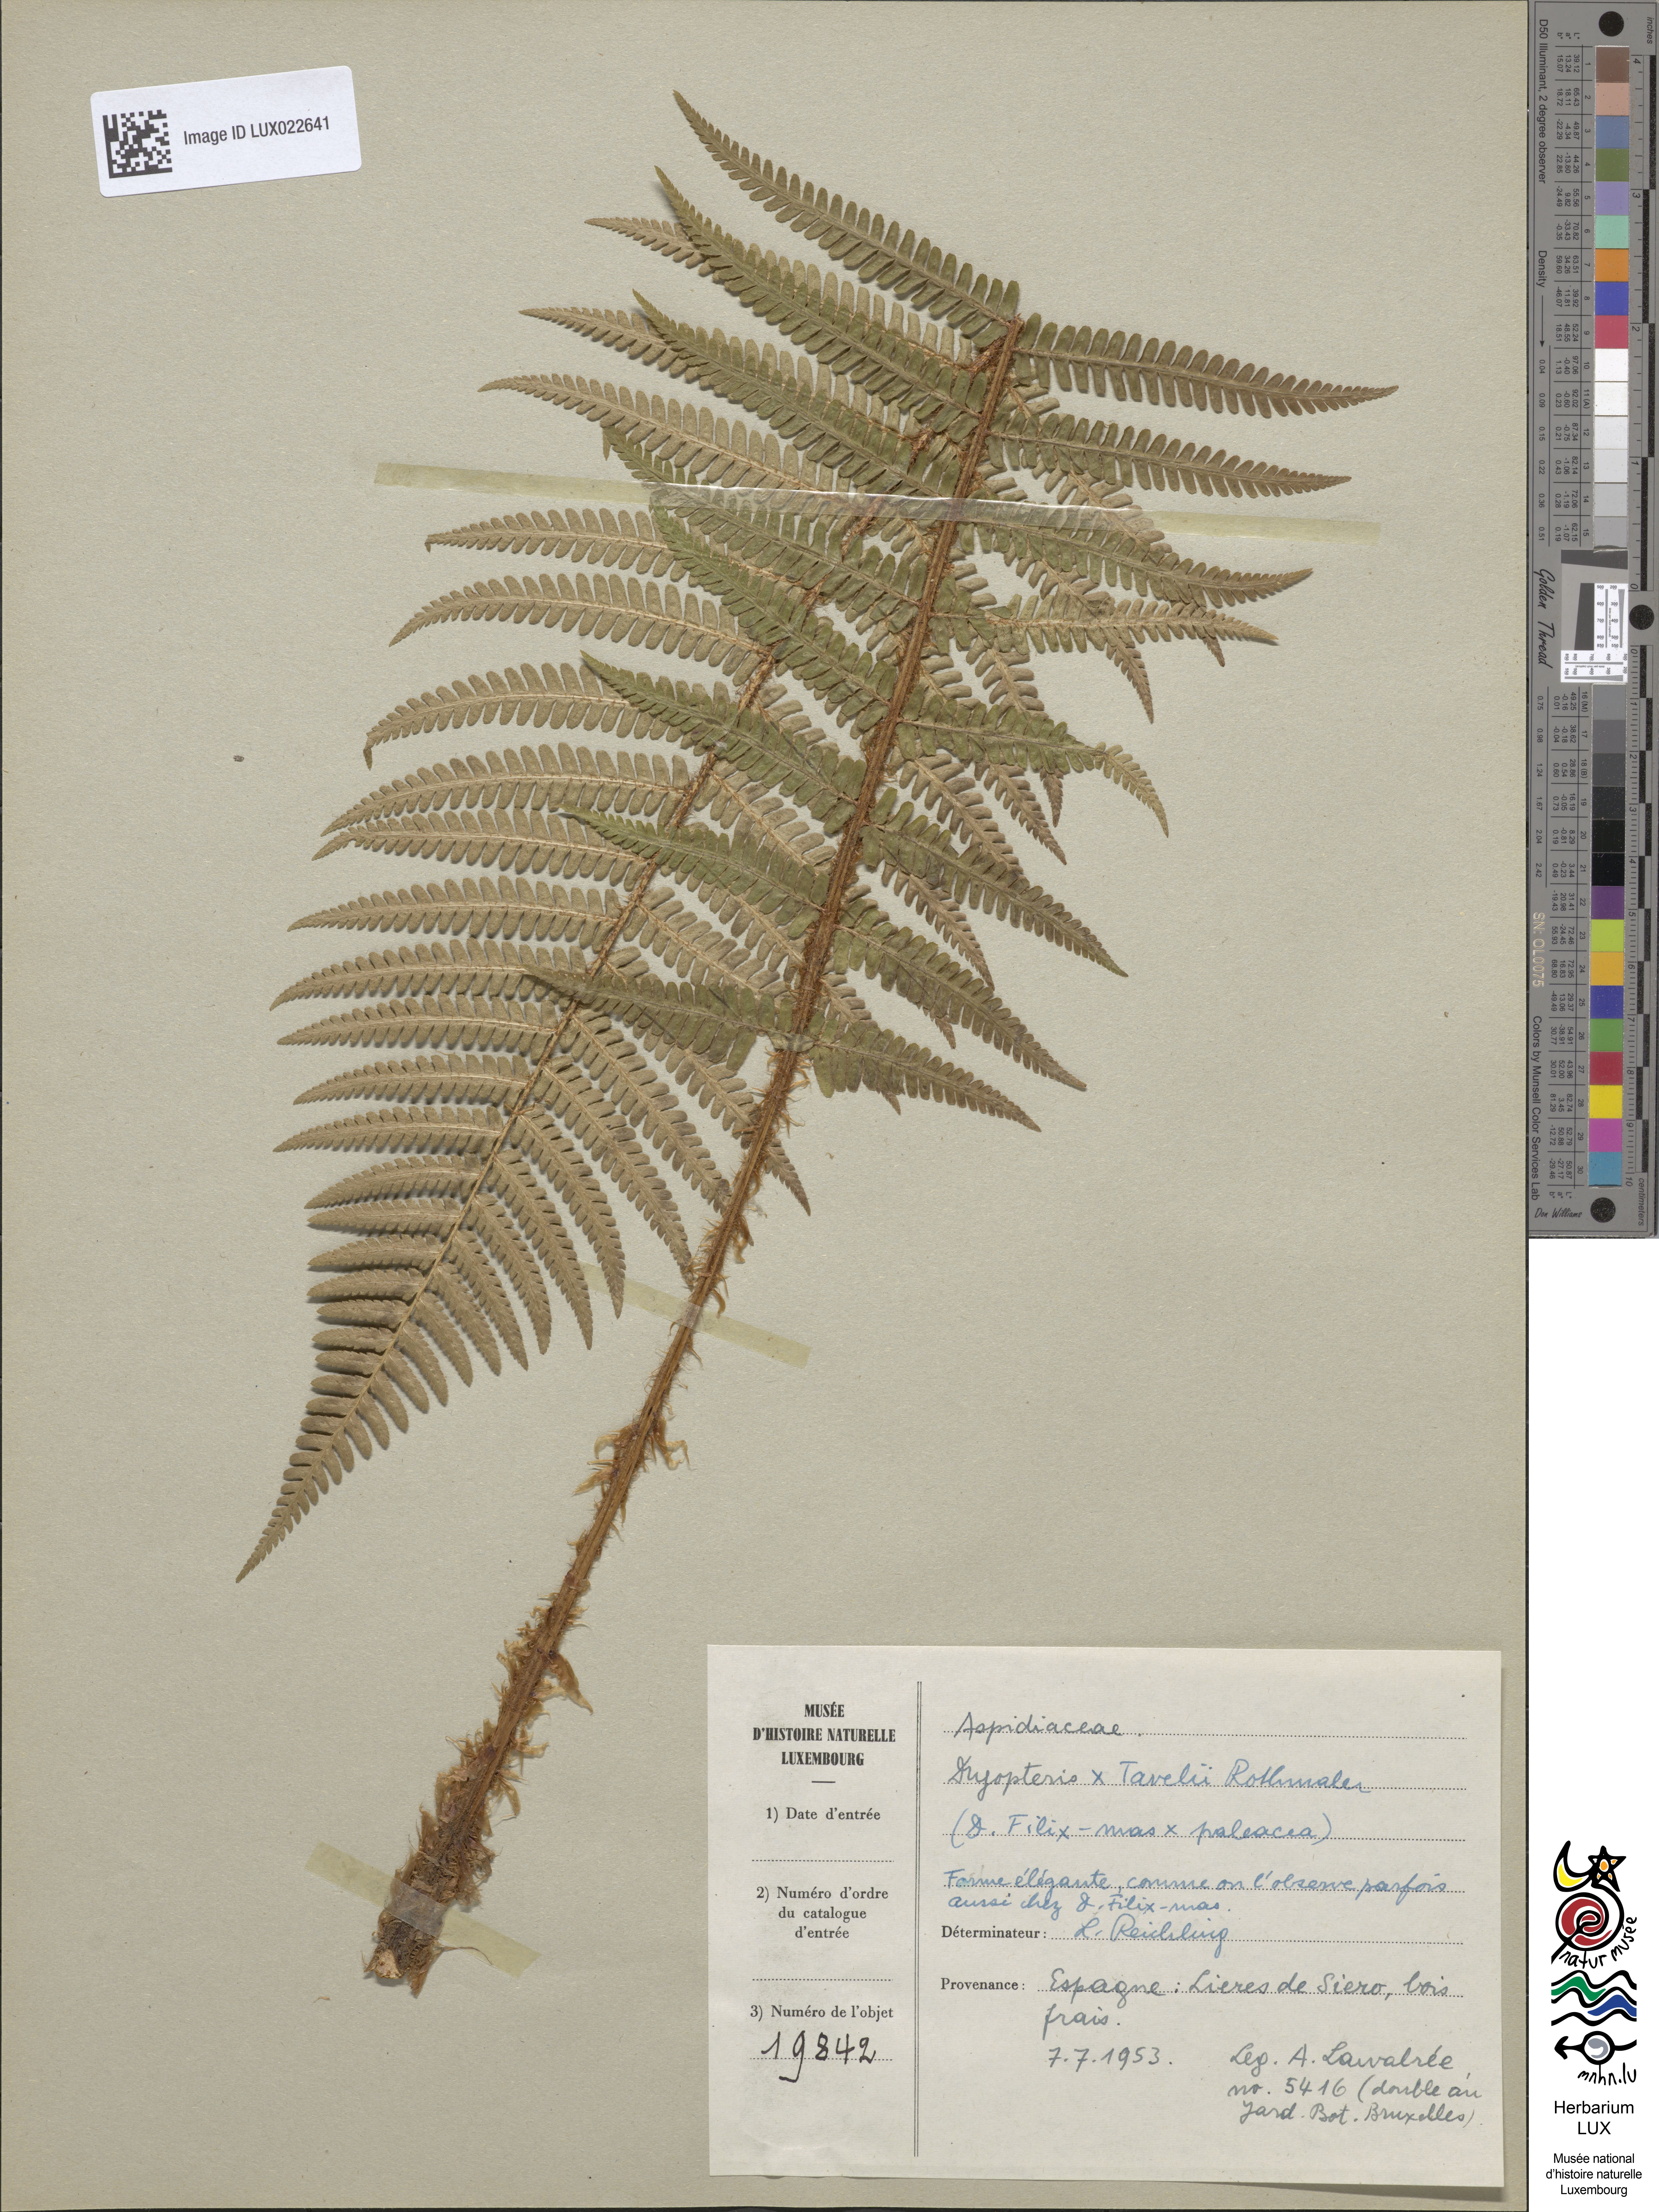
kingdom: Plantae
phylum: Tracheophyta
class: Polypodiopsida
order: Polypodiales
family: Dryopteridaceae
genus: Dryopteris
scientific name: Dryopteris borreri
